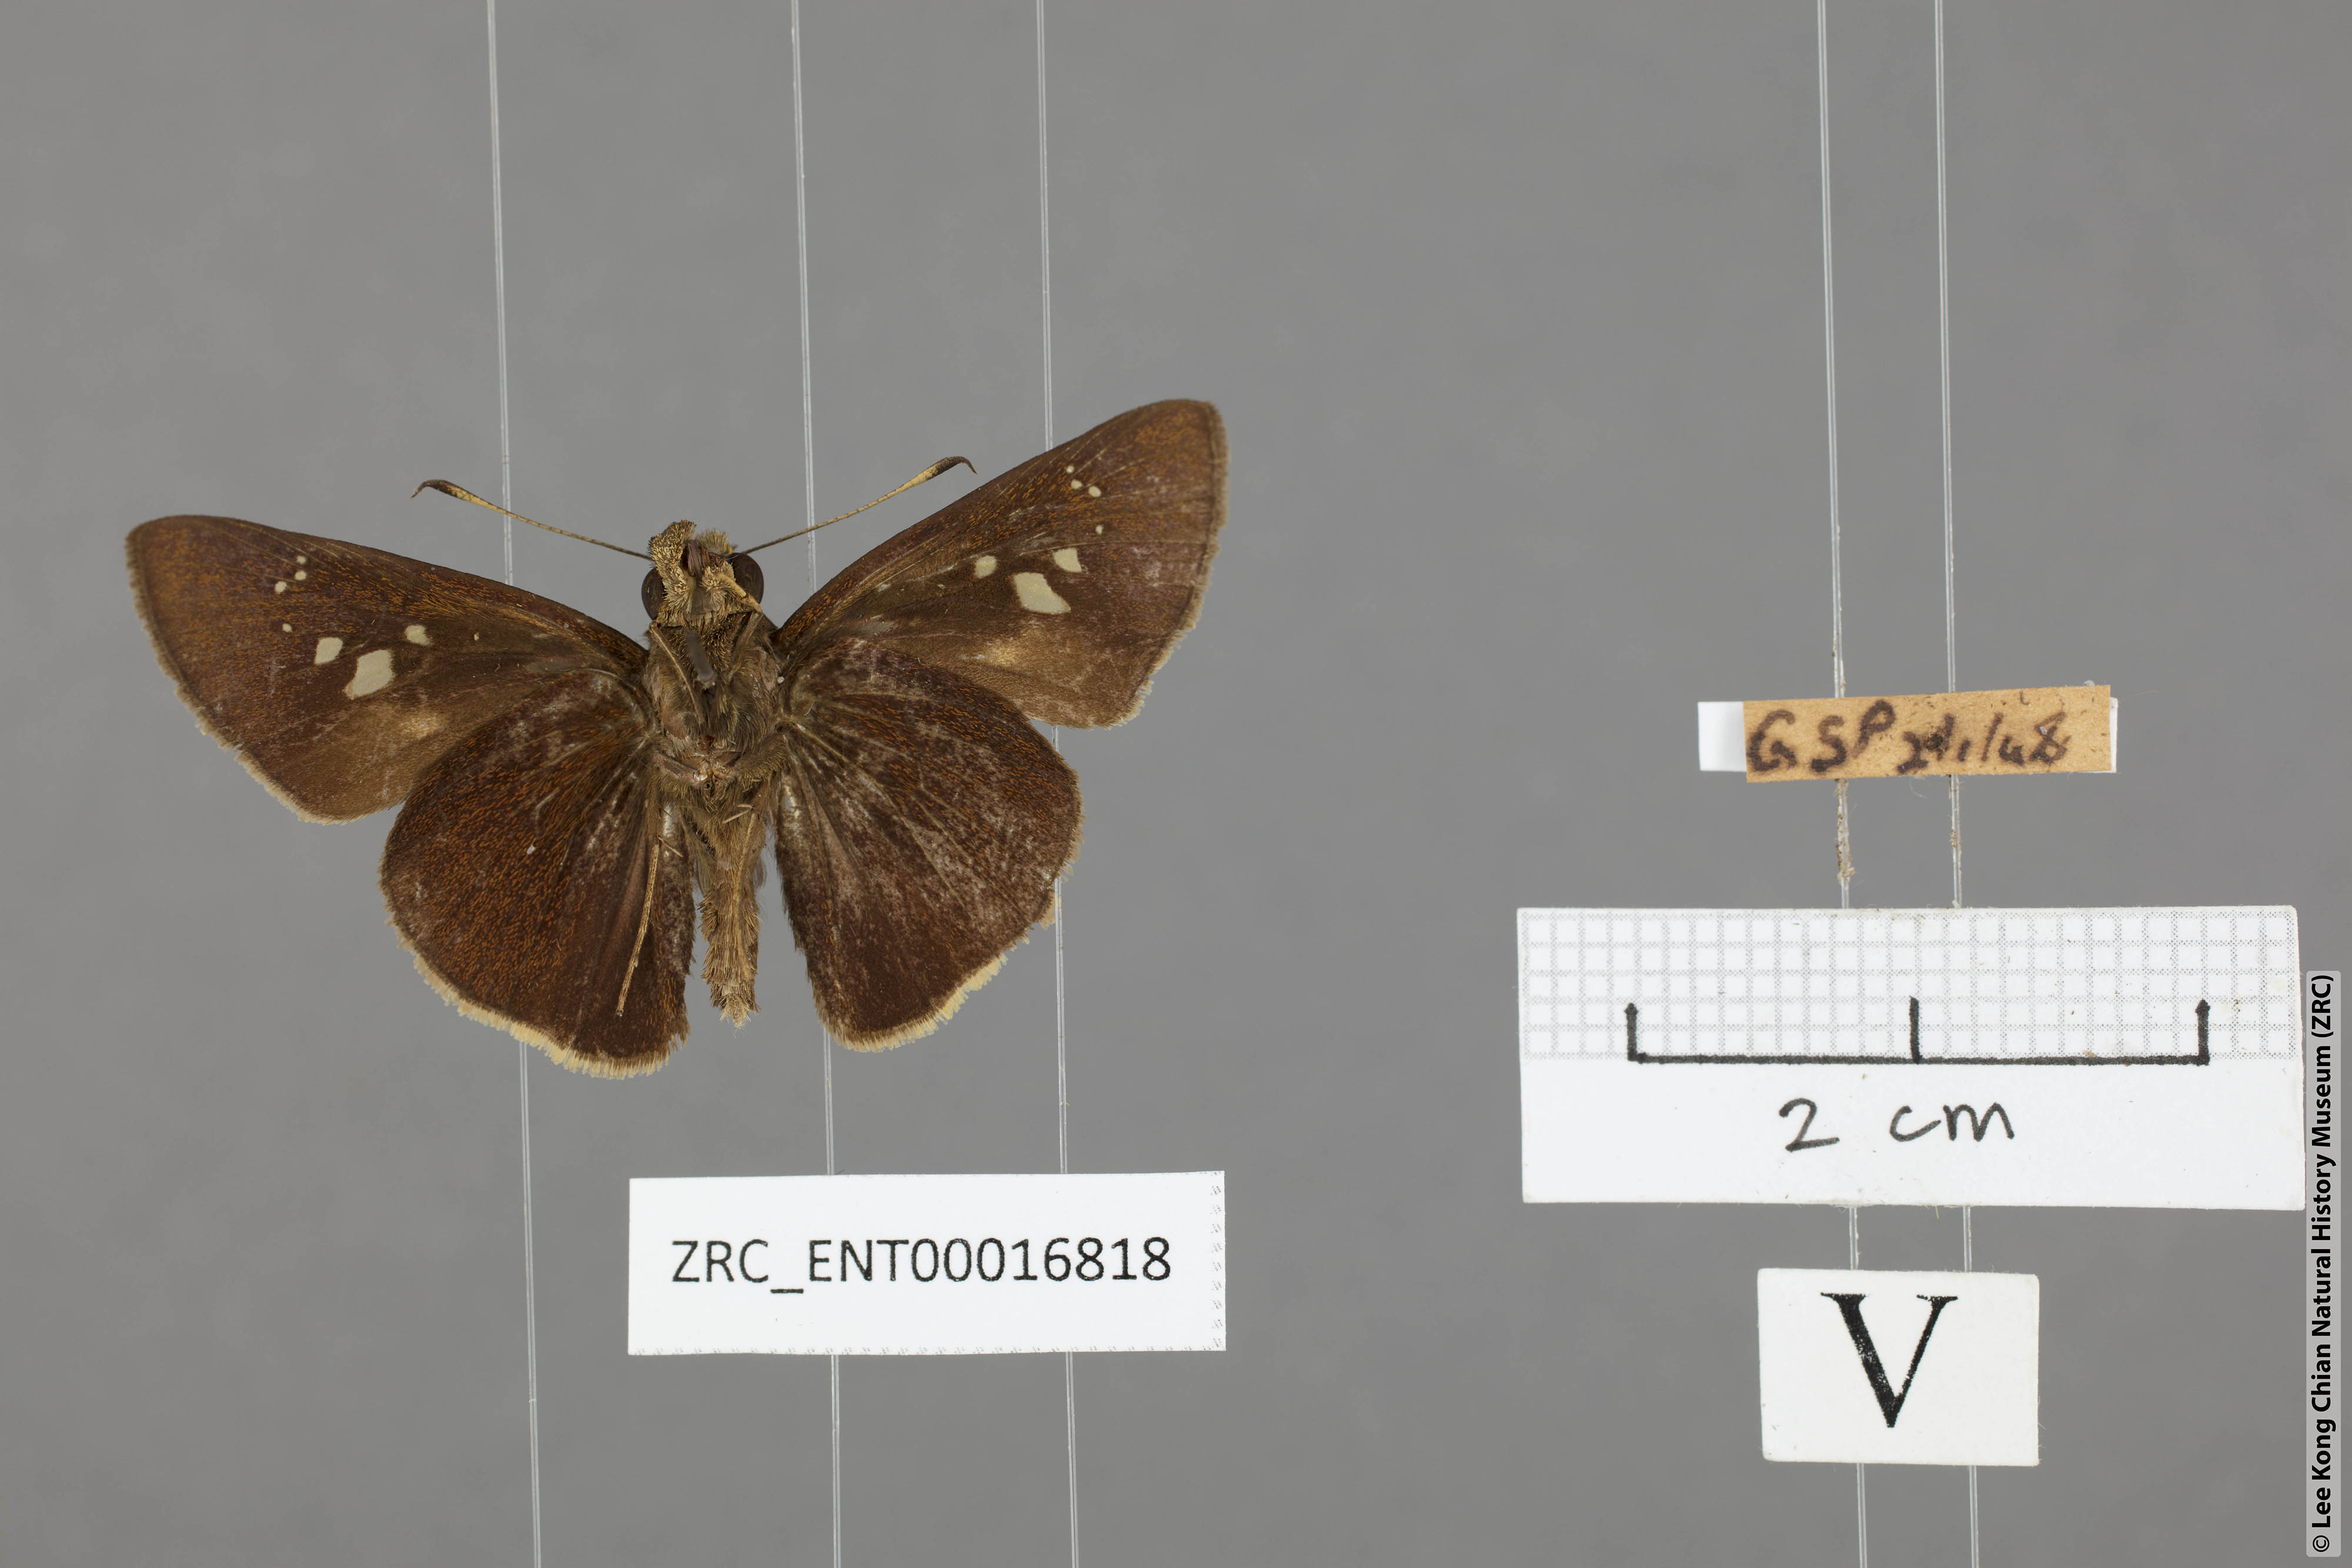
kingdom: Animalia
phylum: Arthropoda
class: Insecta
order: Lepidoptera
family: Hesperiidae
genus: Caltoris
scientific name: Caltoris cormasa
